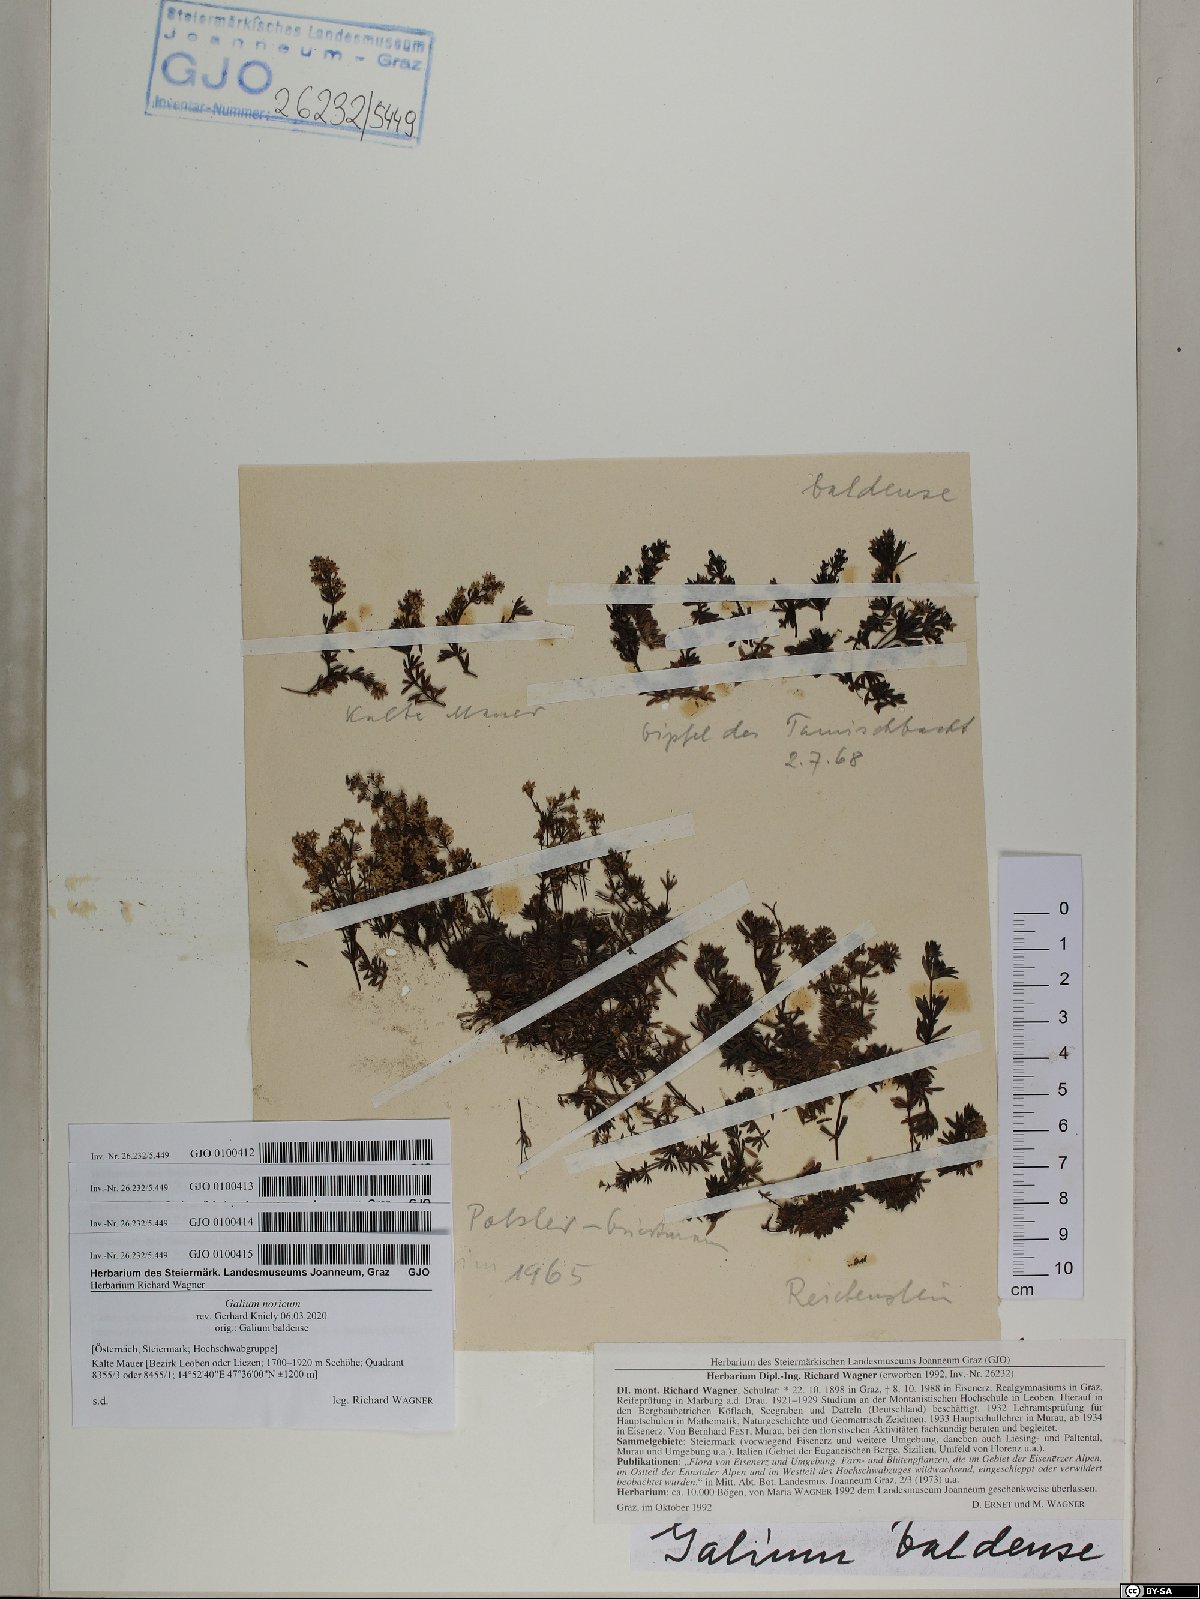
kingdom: Plantae
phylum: Tracheophyta
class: Magnoliopsida
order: Gentianales
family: Rubiaceae
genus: Galium
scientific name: Galium noricum
